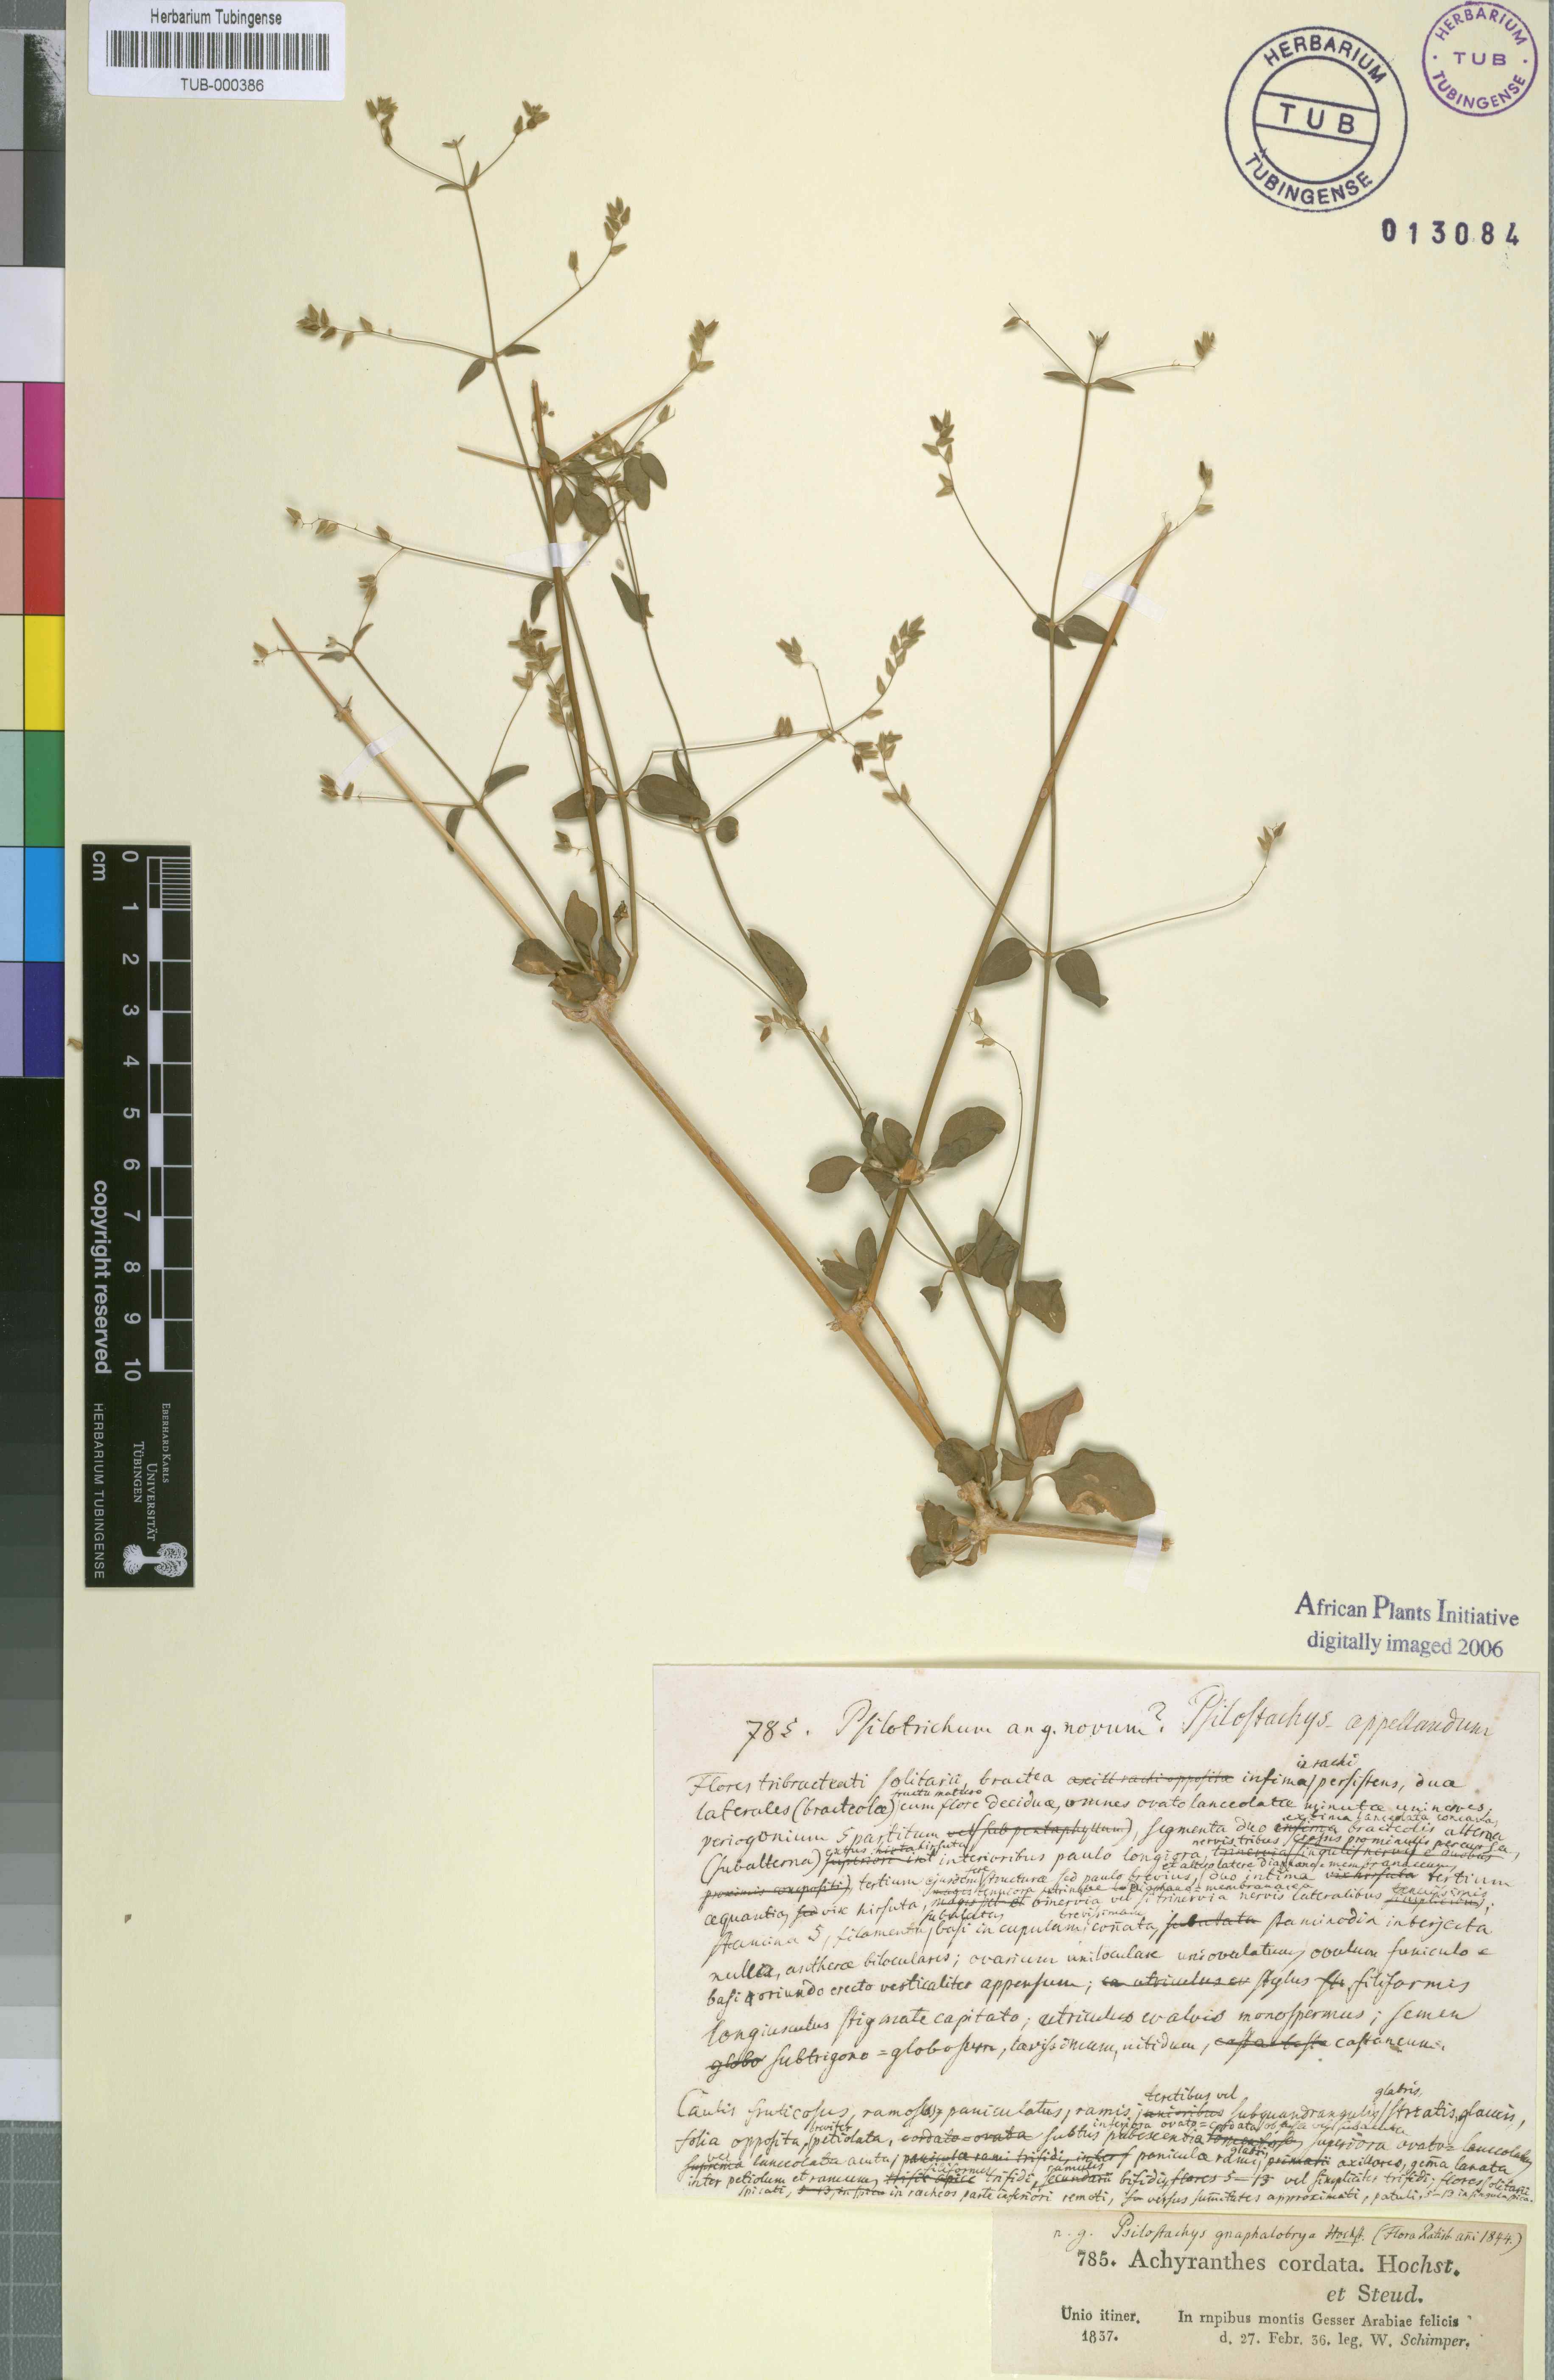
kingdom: Plantae
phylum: Tracheophyta
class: Magnoliopsida
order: Caryophyllales
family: Amaranthaceae
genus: Psilotrichum
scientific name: Psilotrichum gnaphalobryum
